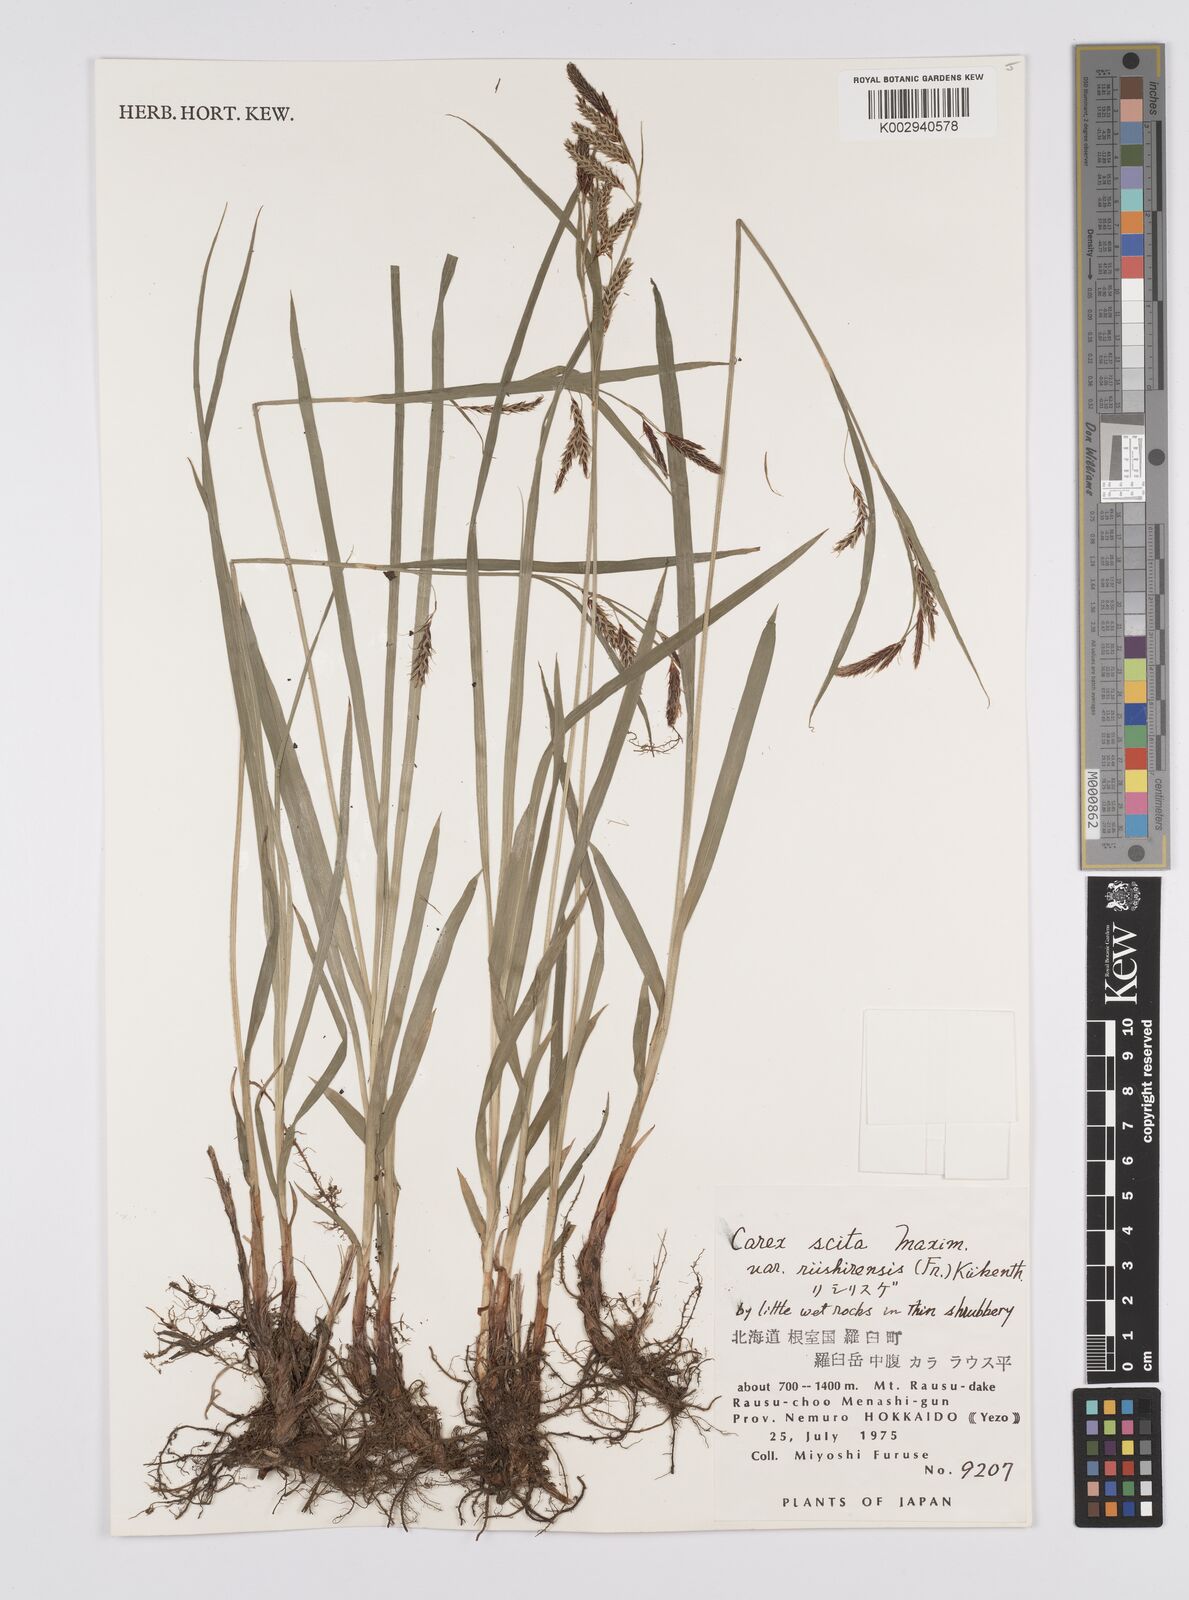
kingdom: Plantae
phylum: Tracheophyta
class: Liliopsida
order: Poales
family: Cyperaceae
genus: Carex
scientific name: Carex scita
